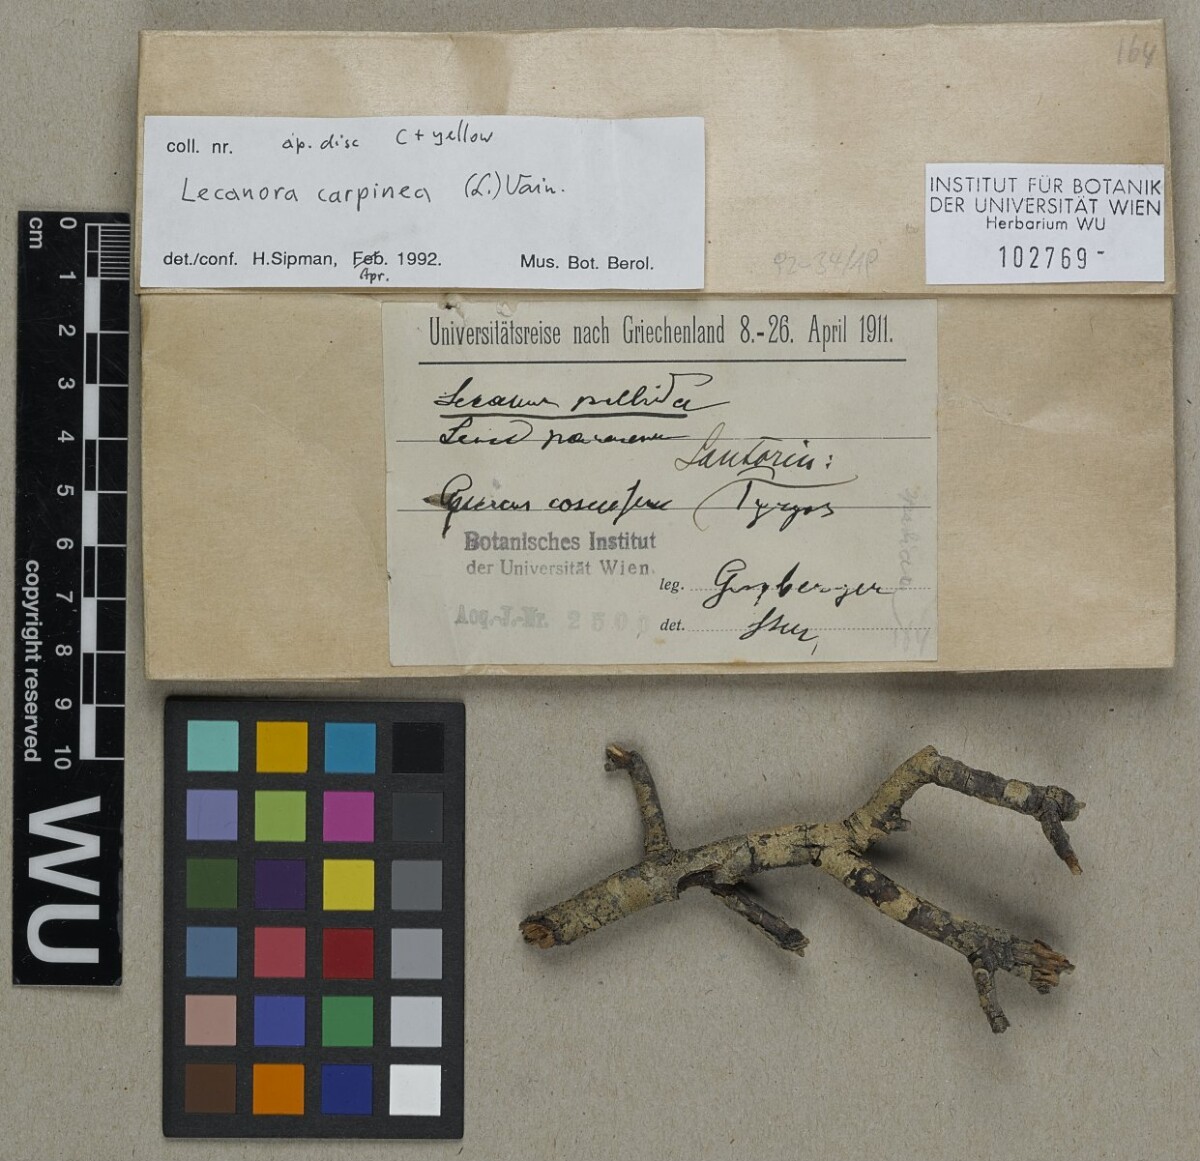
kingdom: Fungi
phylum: Ascomycota
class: Lecanoromycetes
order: Lecanorales
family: Lecanoraceae
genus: Glaucomaria
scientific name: Glaucomaria carpinea
